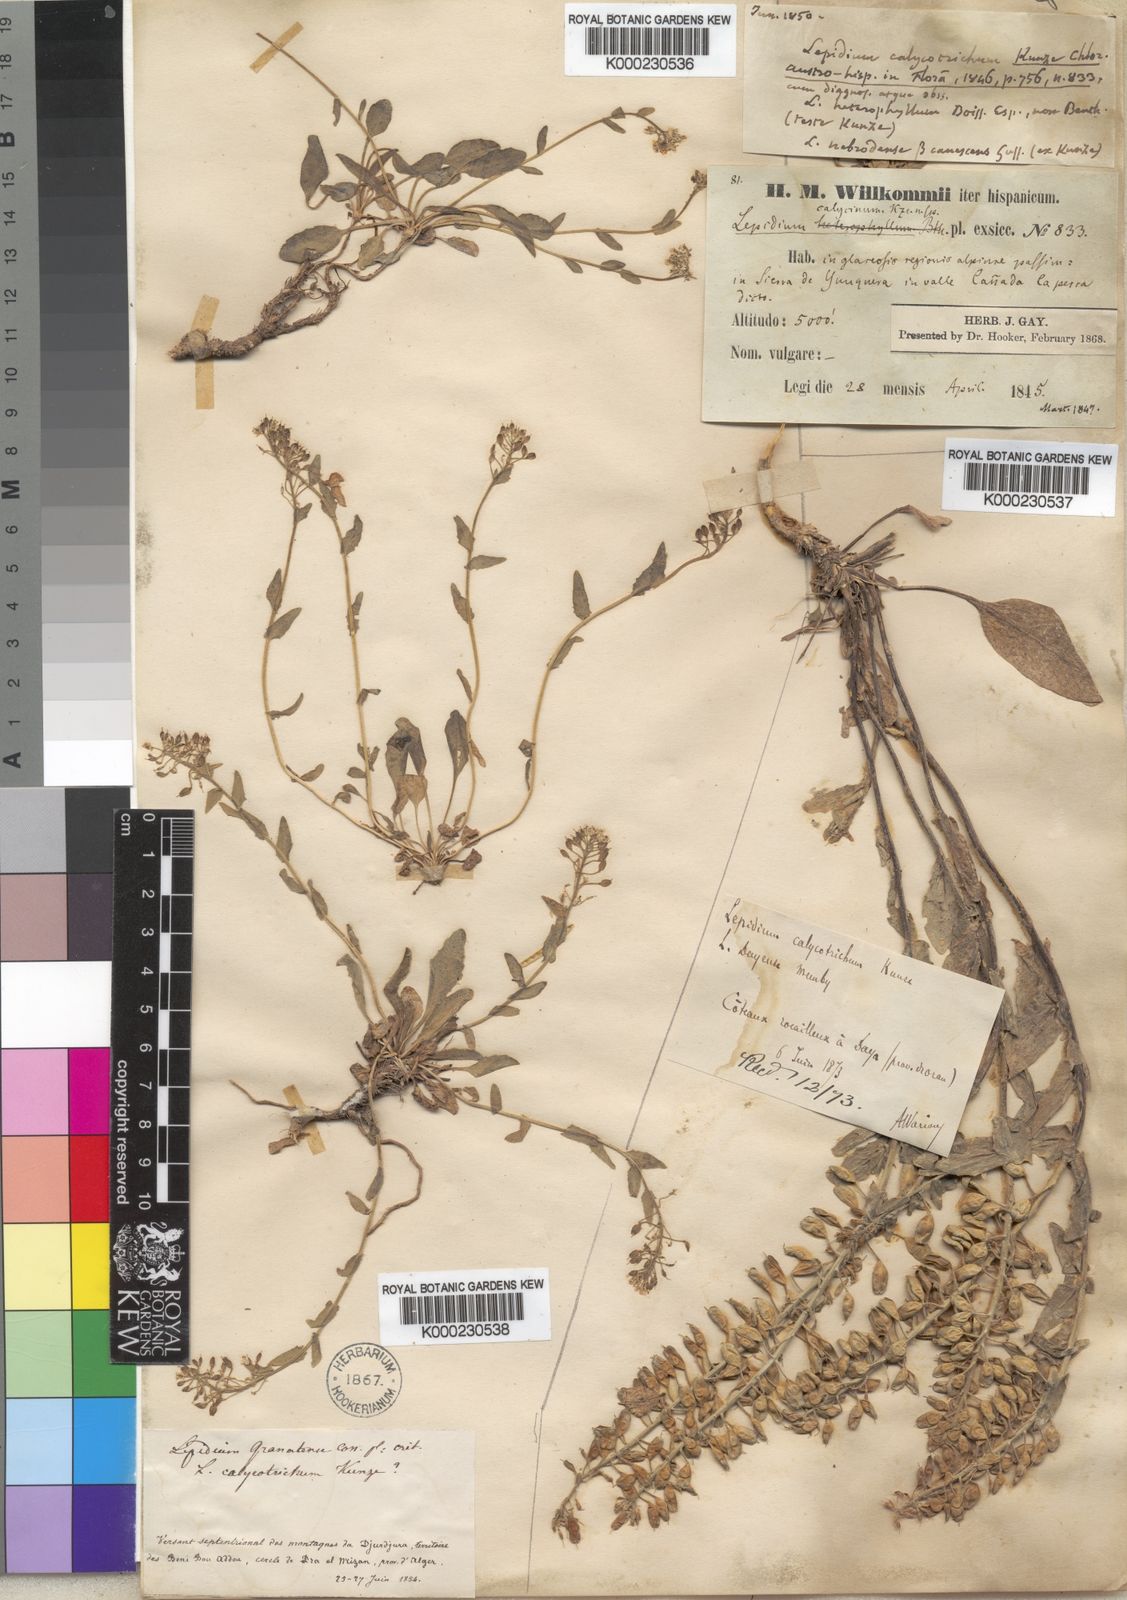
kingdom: Plantae
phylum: Tracheophyta
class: Magnoliopsida
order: Brassicales
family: Brassicaceae
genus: Lepidium
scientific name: Lepidium hirtum
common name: Mediterranean pepperweed
